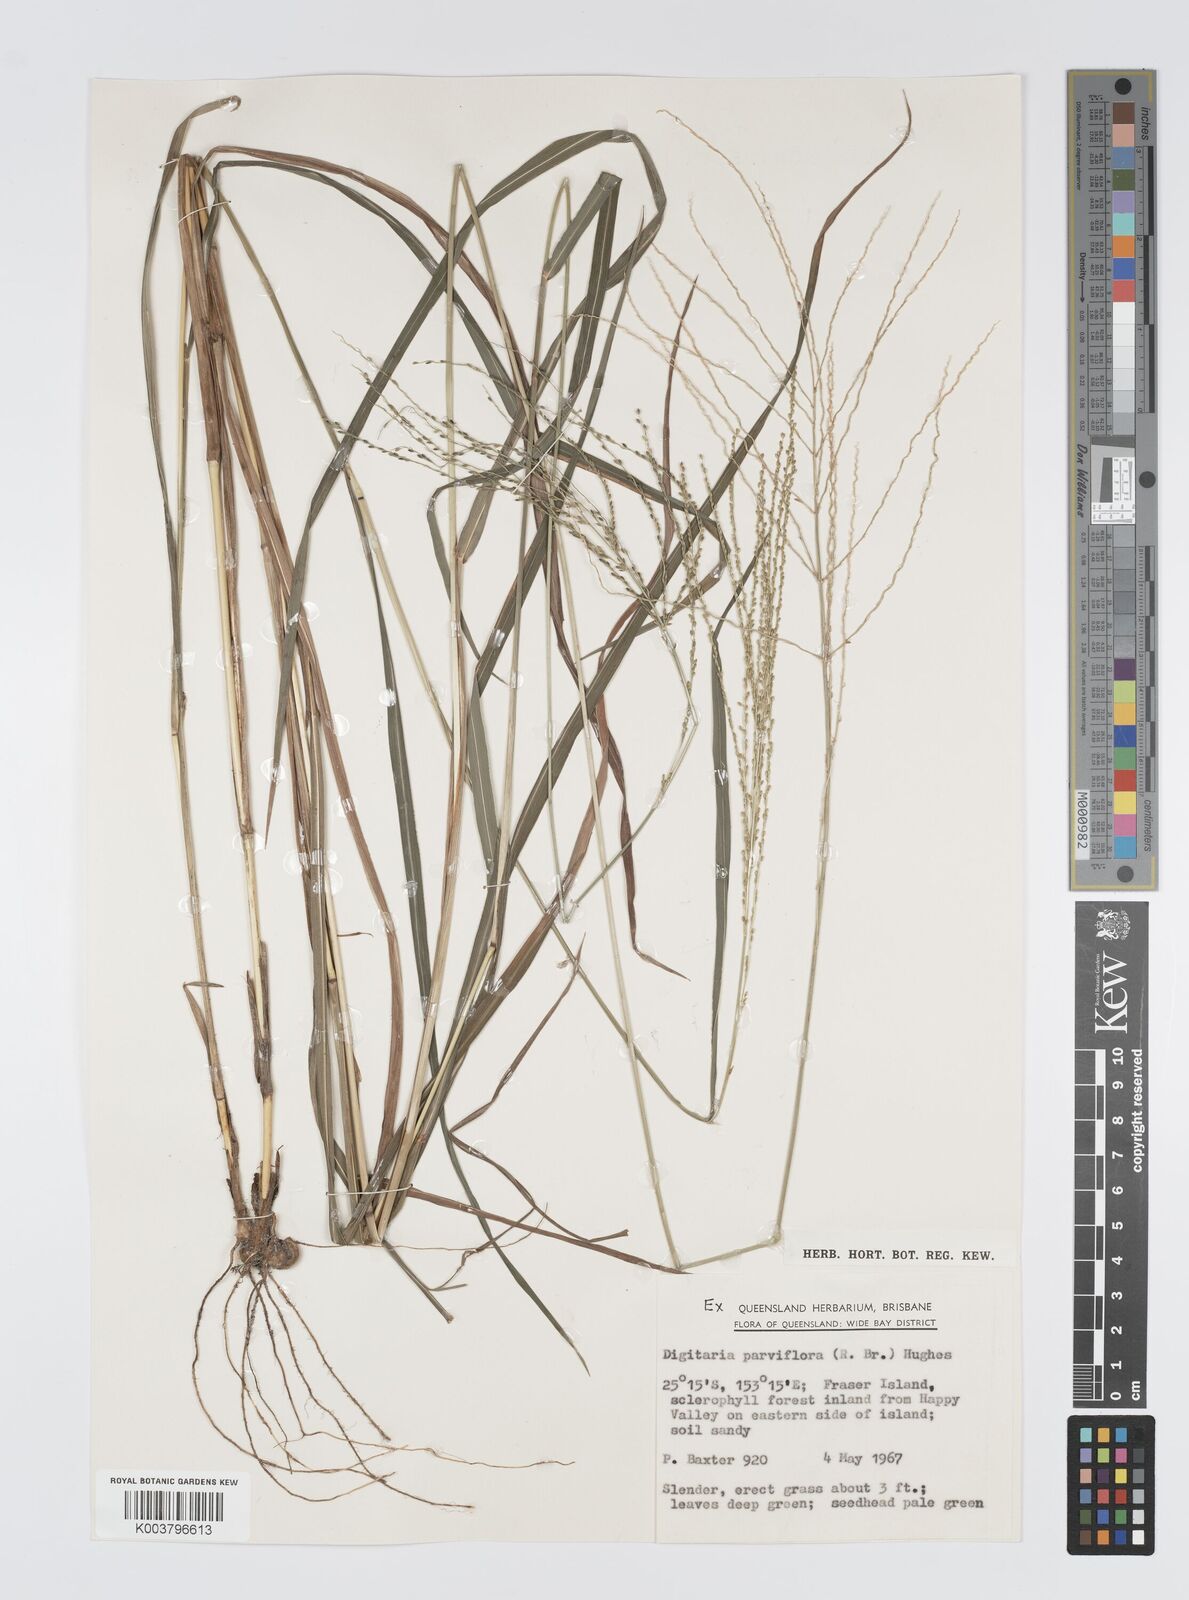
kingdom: Plantae
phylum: Tracheophyta
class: Liliopsida
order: Poales
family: Poaceae
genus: Digitaria
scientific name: Digitaria parviflora
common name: Small-flower finger grass
